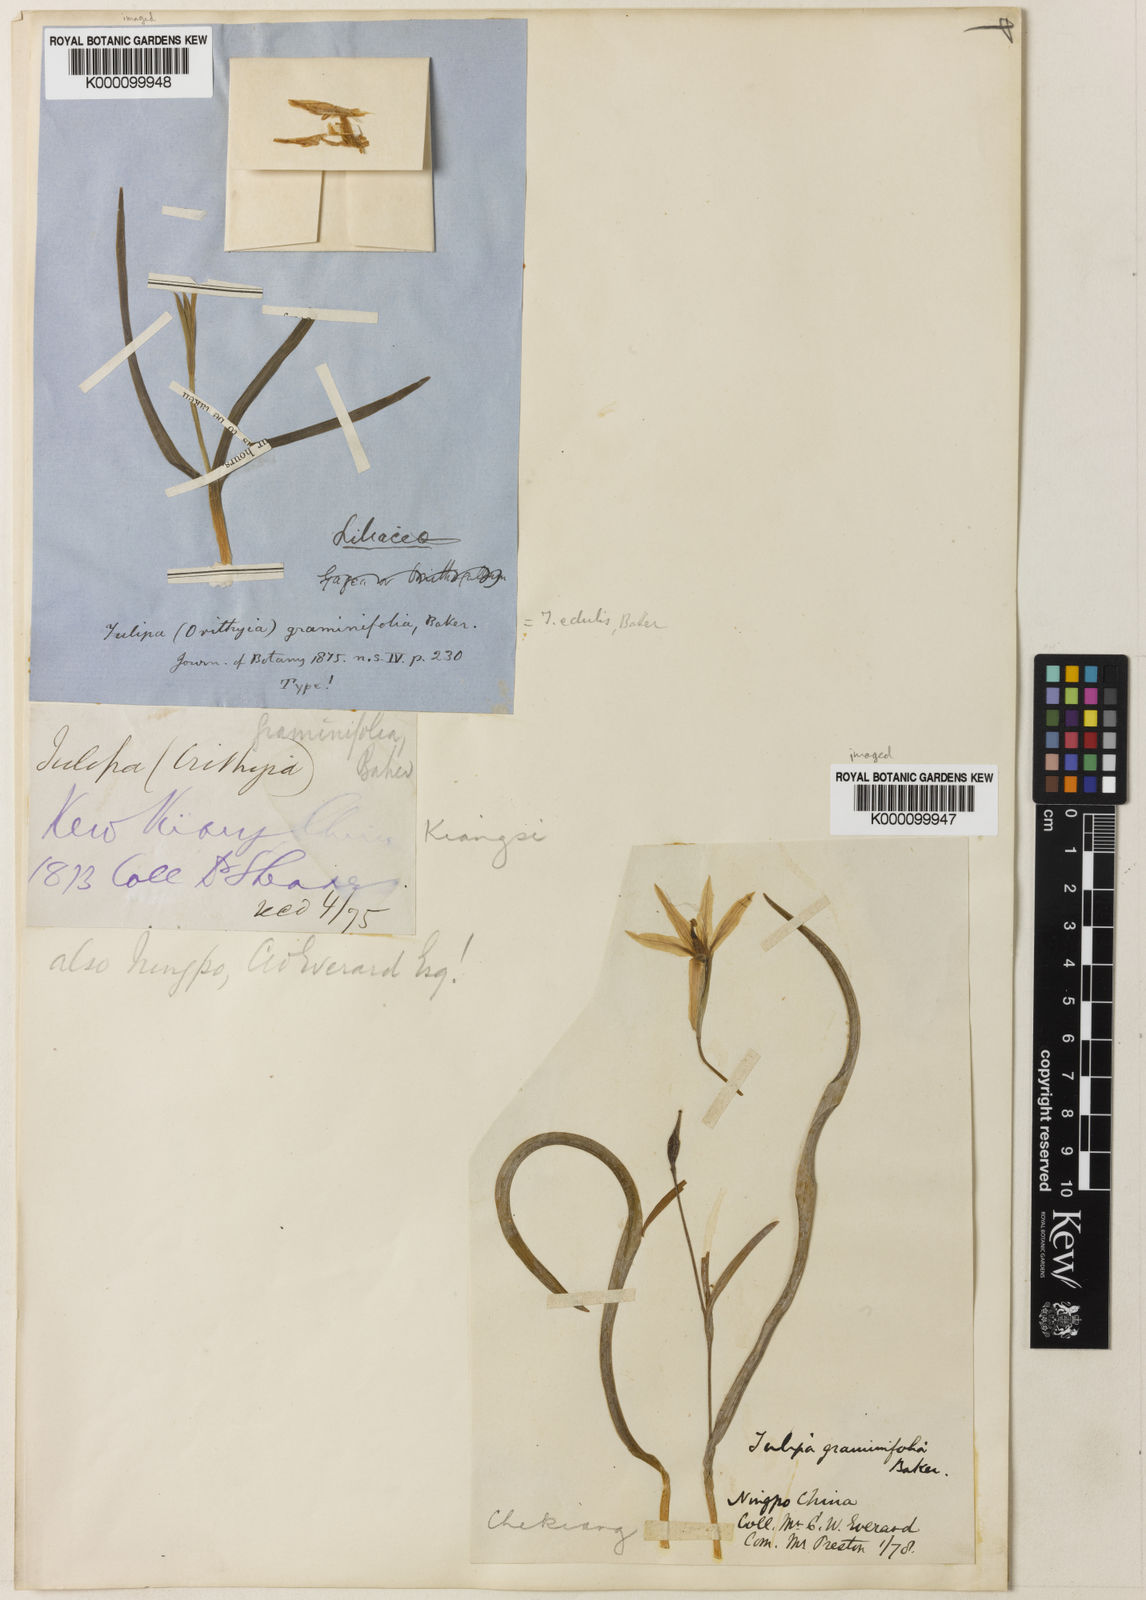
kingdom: Plantae
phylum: Tracheophyta
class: Liliopsida
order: Liliales
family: Liliaceae
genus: Amana
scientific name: Amana edulis
